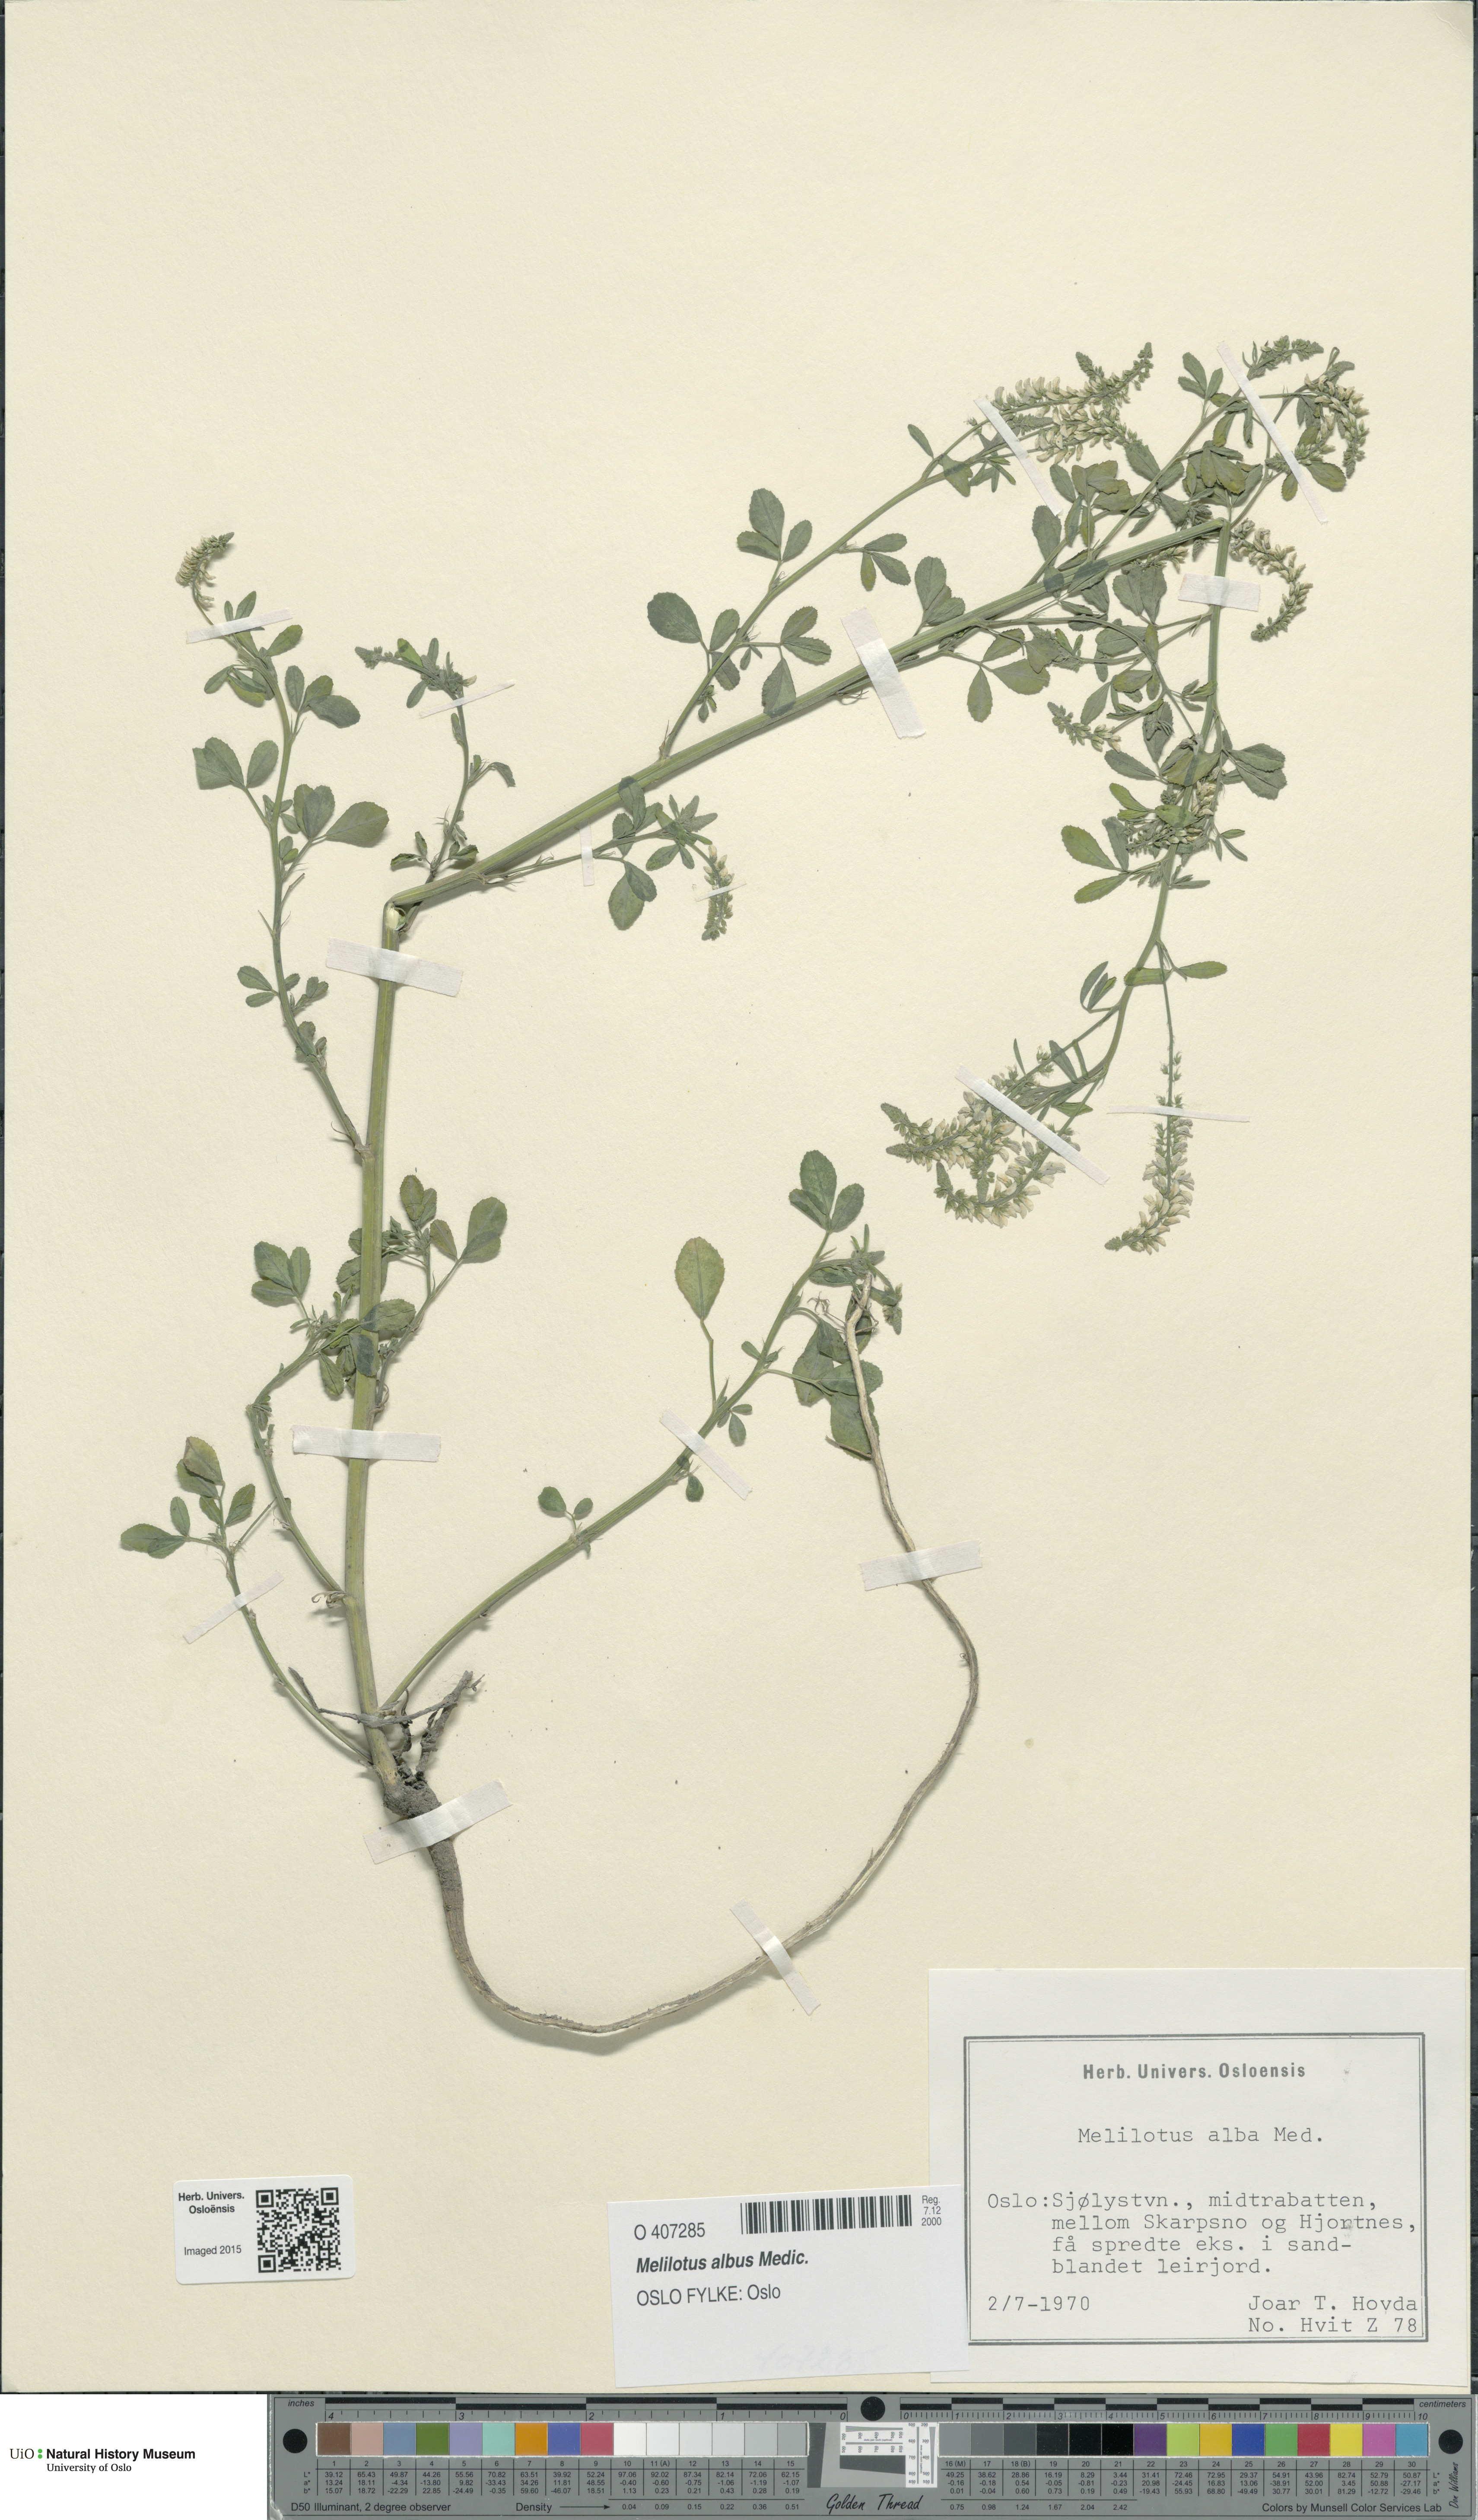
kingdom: Plantae
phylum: Tracheophyta
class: Magnoliopsida
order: Fabales
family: Fabaceae
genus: Melilotus
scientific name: Melilotus albus
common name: White melilot
